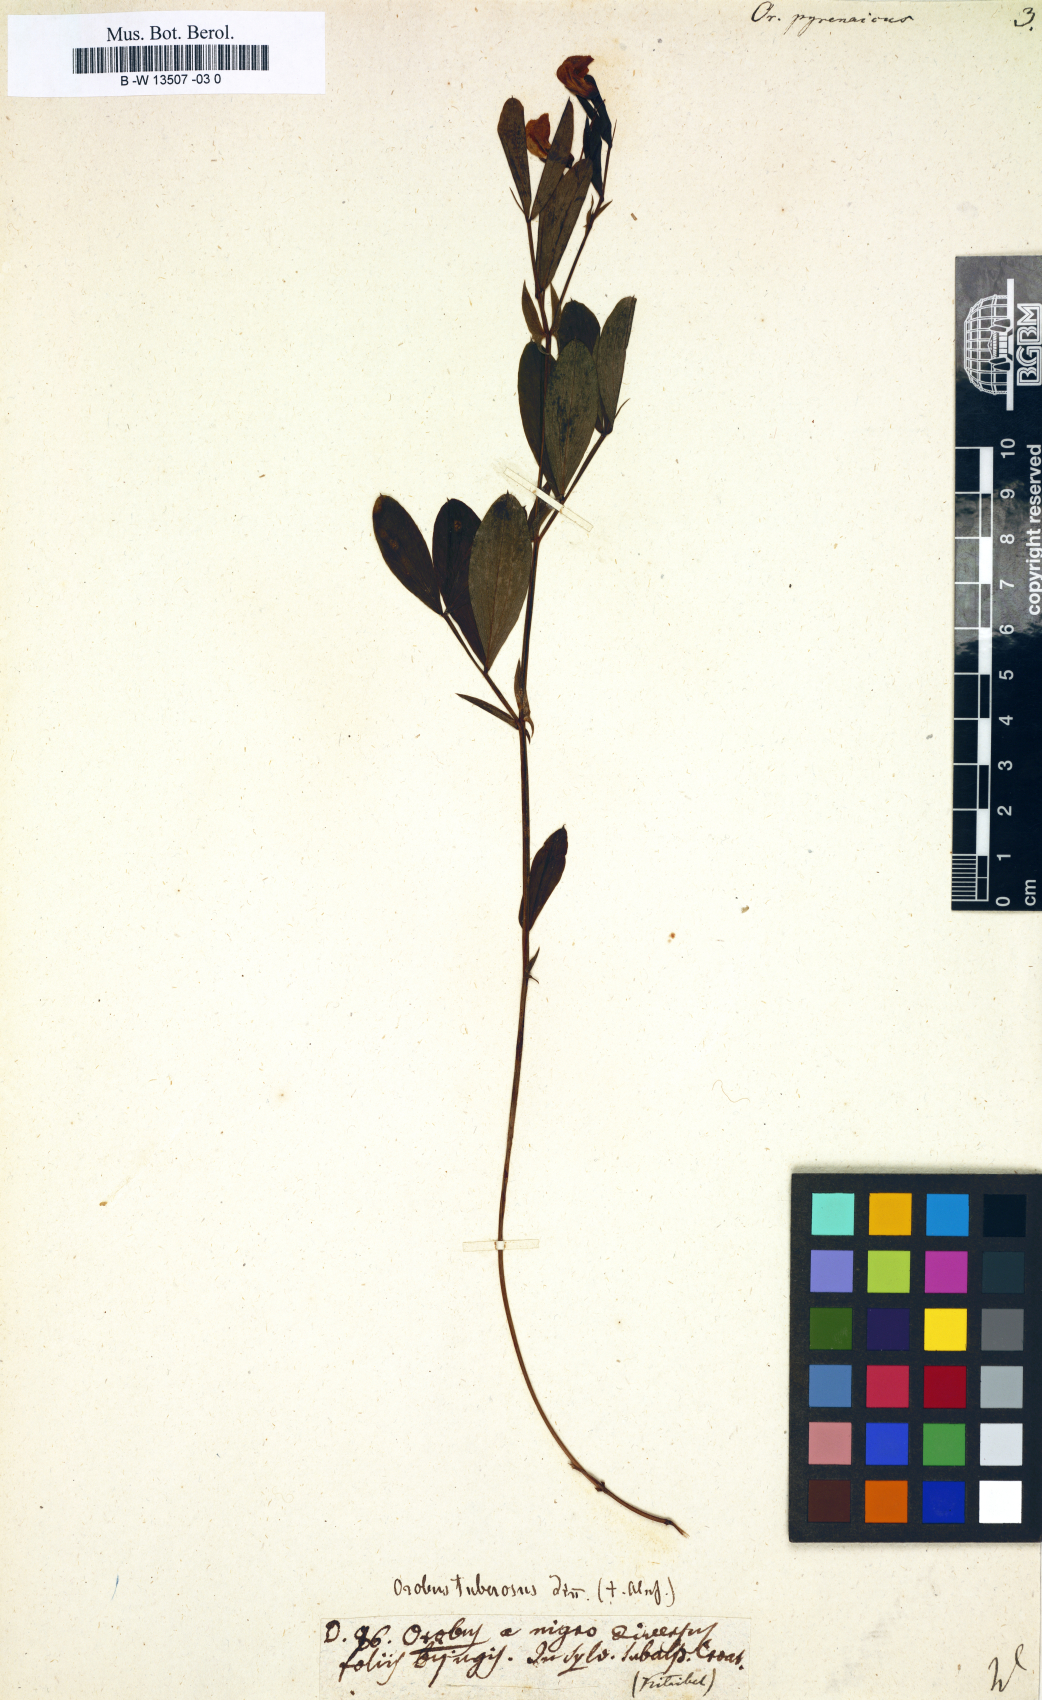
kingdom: Plantae
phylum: Tracheophyta
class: Magnoliopsida
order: Fabales
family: Fabaceae
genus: Lathyrus
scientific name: Lathyrus linifolius
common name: Bitter-vetch
